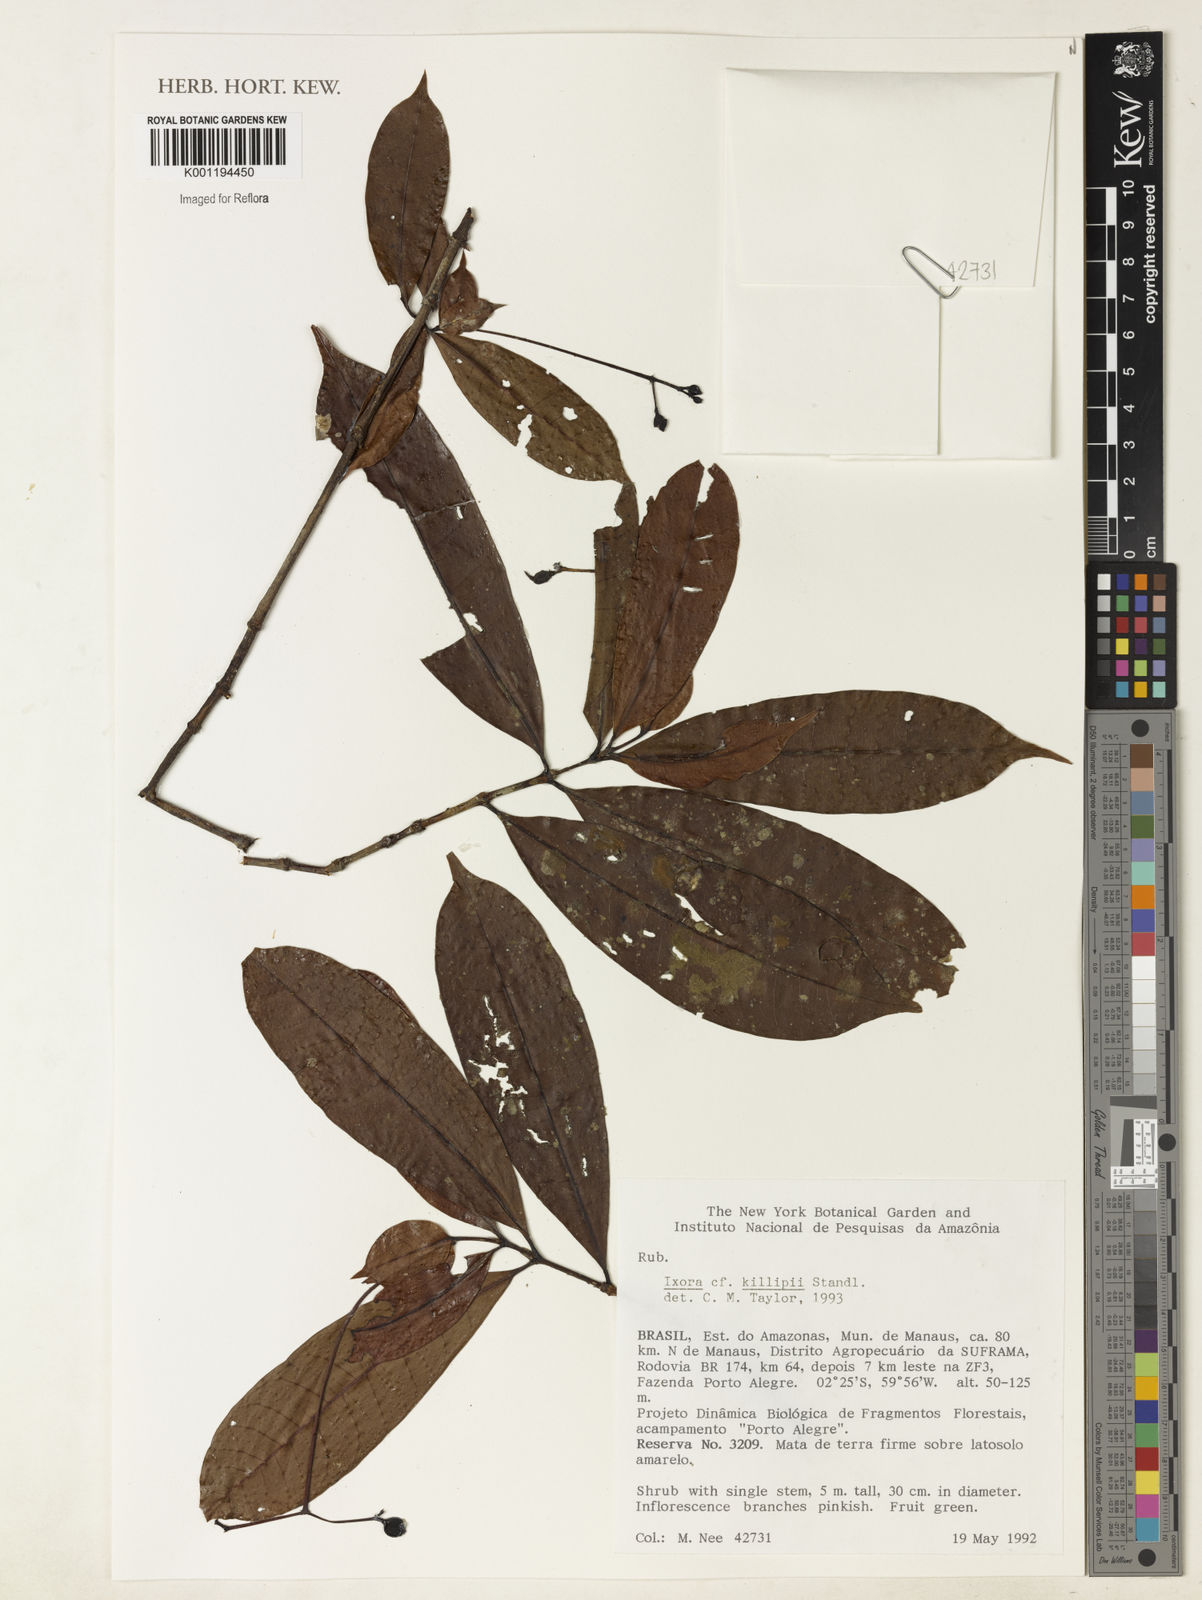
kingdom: Plantae
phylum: Tracheophyta
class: Magnoliopsida
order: Gentianales
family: Rubiaceae
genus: Ixora
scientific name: Ixora killipii
